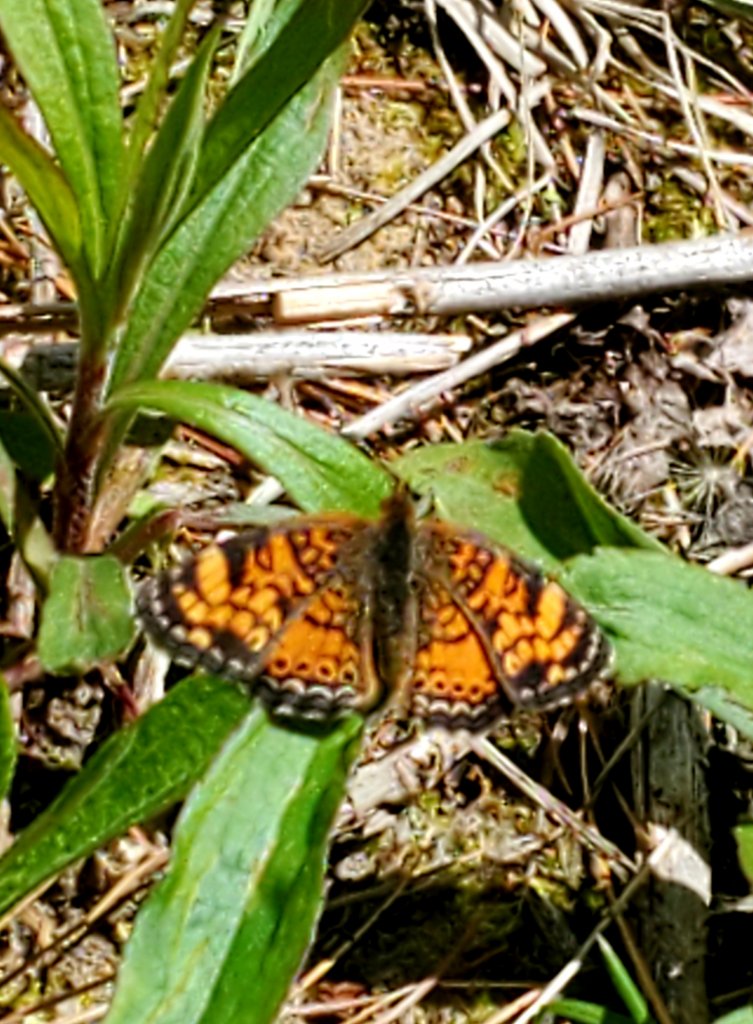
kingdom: Animalia
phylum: Arthropoda
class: Insecta
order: Lepidoptera
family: Nymphalidae
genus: Phyciodes
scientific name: Phyciodes
